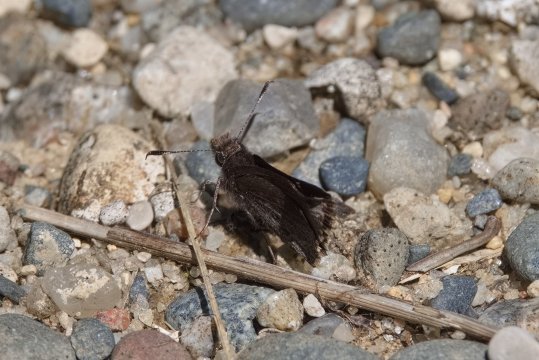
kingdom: Animalia
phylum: Arthropoda
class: Insecta
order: Lepidoptera
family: Hesperiidae
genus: Mastor
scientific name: Mastor vialis
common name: Common Roadside-Skipper
